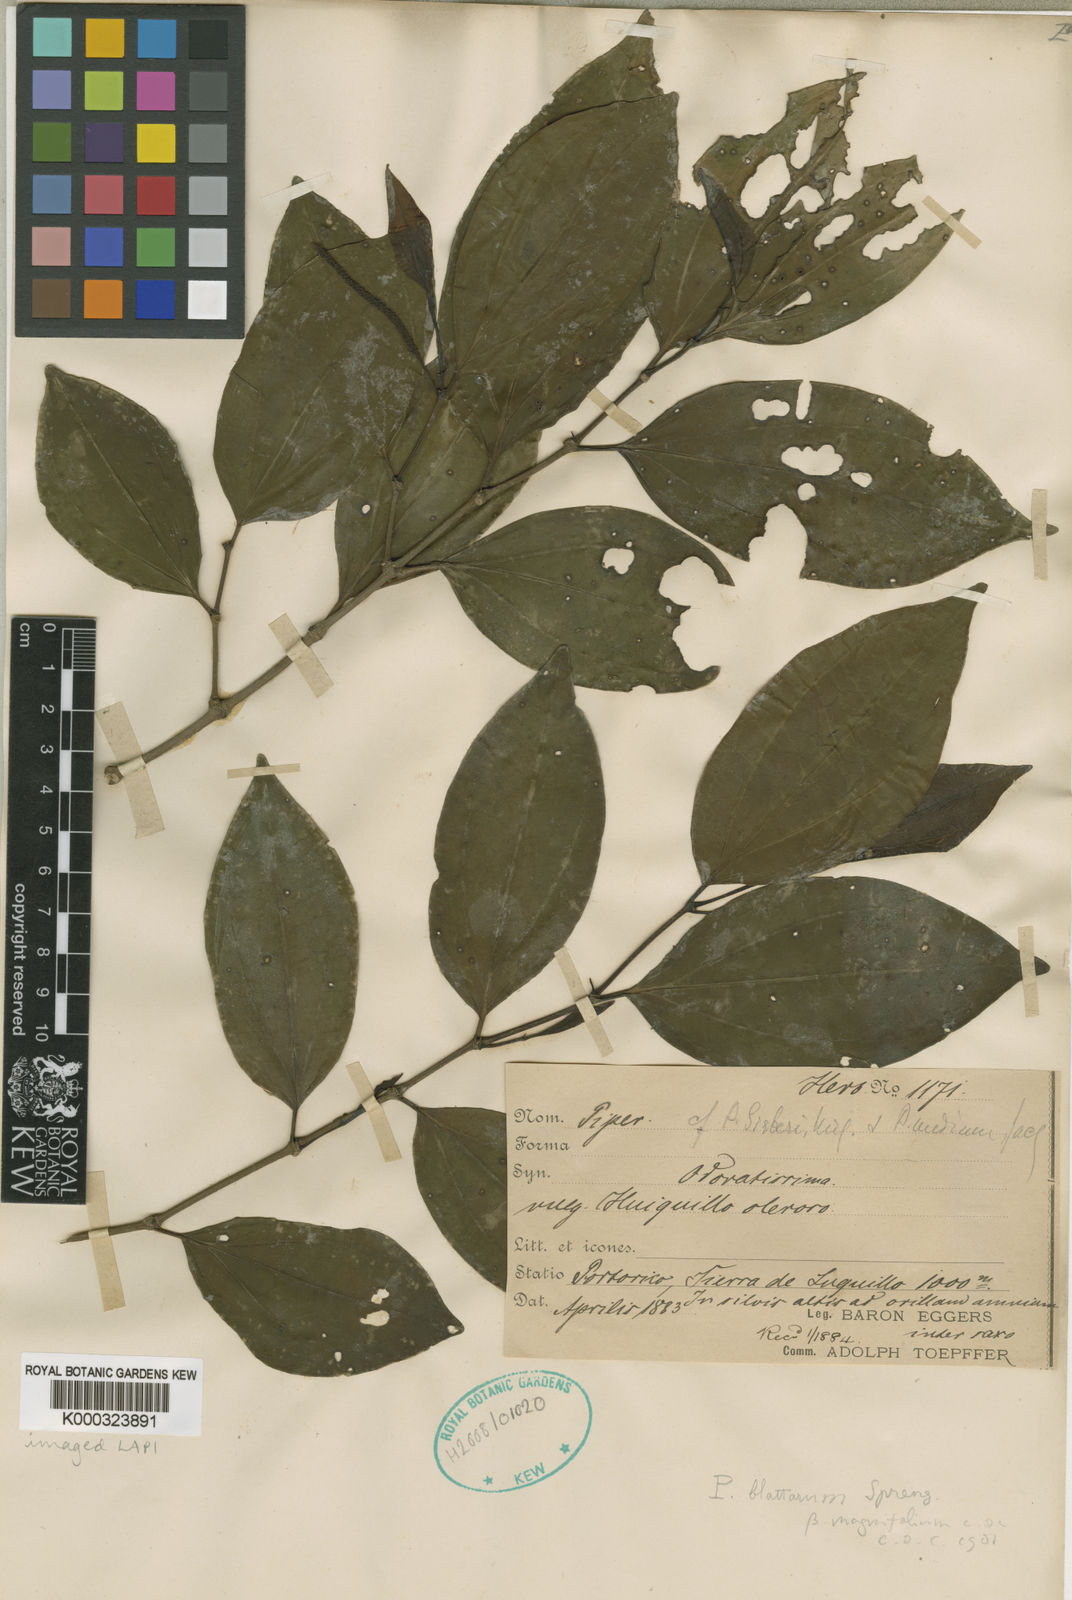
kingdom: Plantae
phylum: Tracheophyta
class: Magnoliopsida
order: Piperales
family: Piperaceae
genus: Piper
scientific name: Piper blattarum
